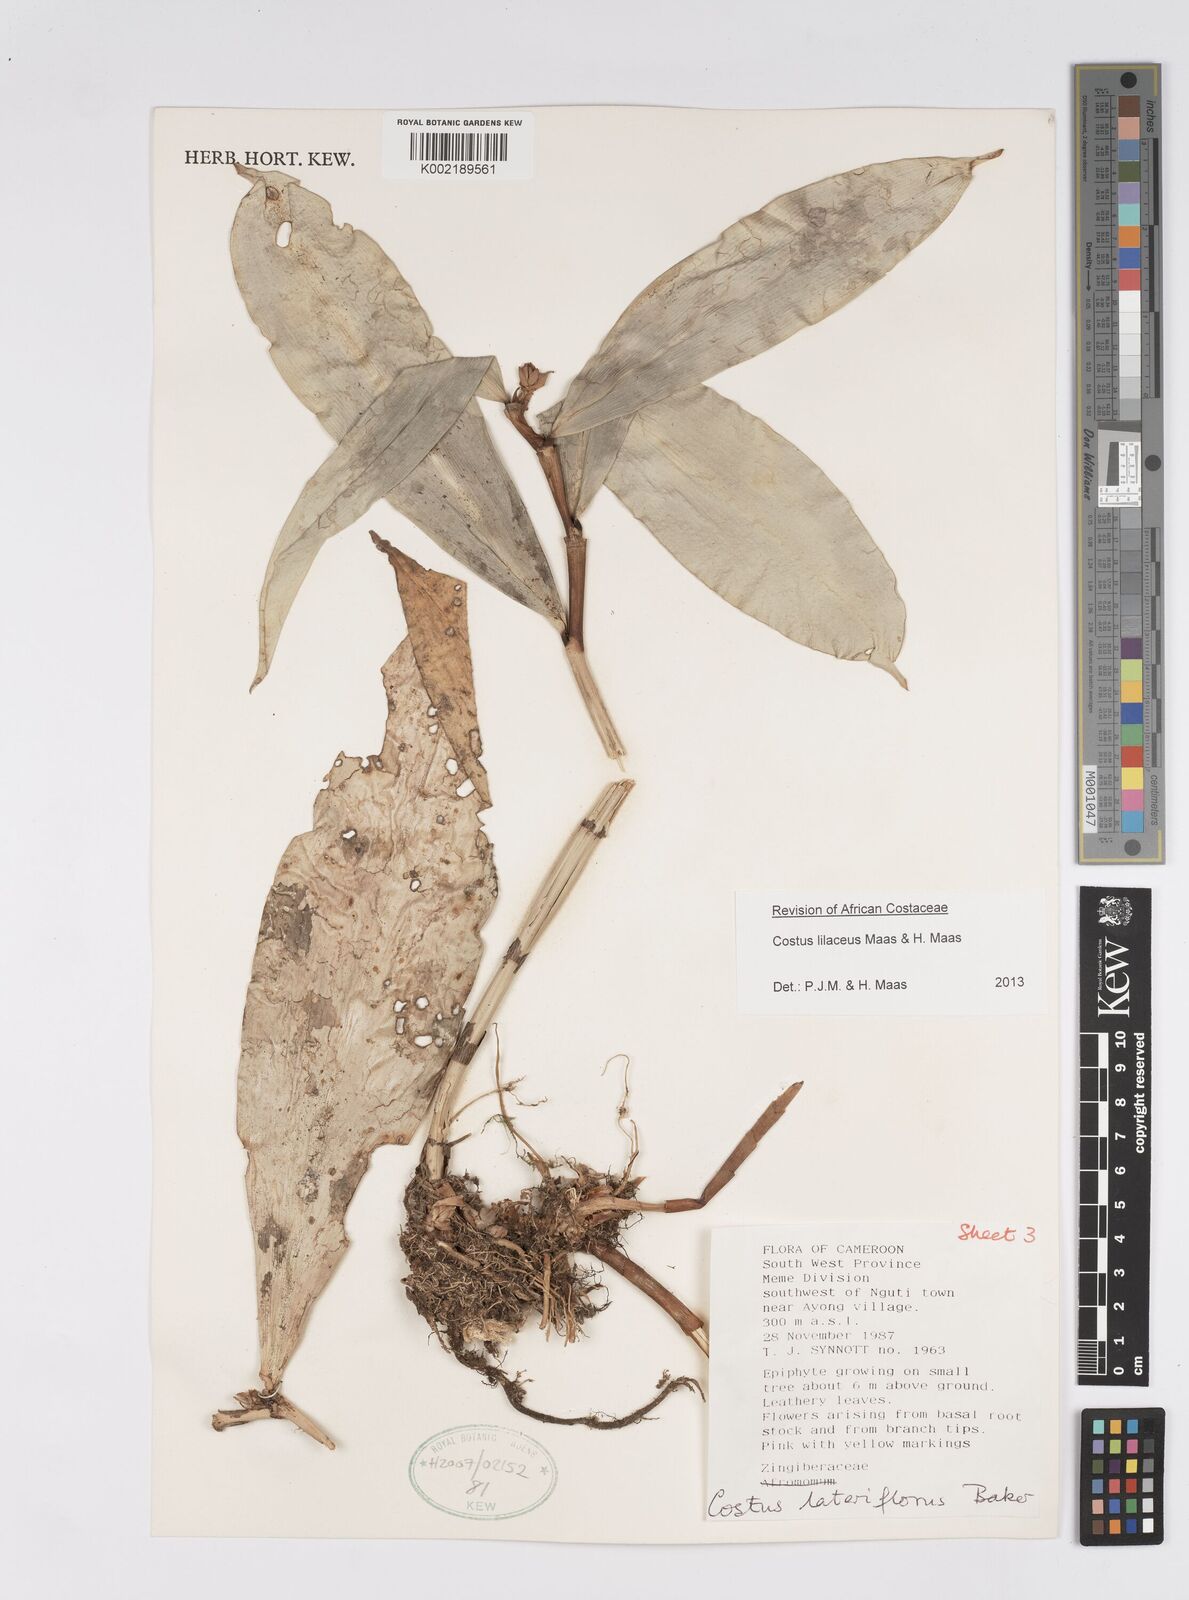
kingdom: Plantae
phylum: Tracheophyta
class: Liliopsida
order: Zingiberales
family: Costaceae
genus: Costus
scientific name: Costus lilaceus
